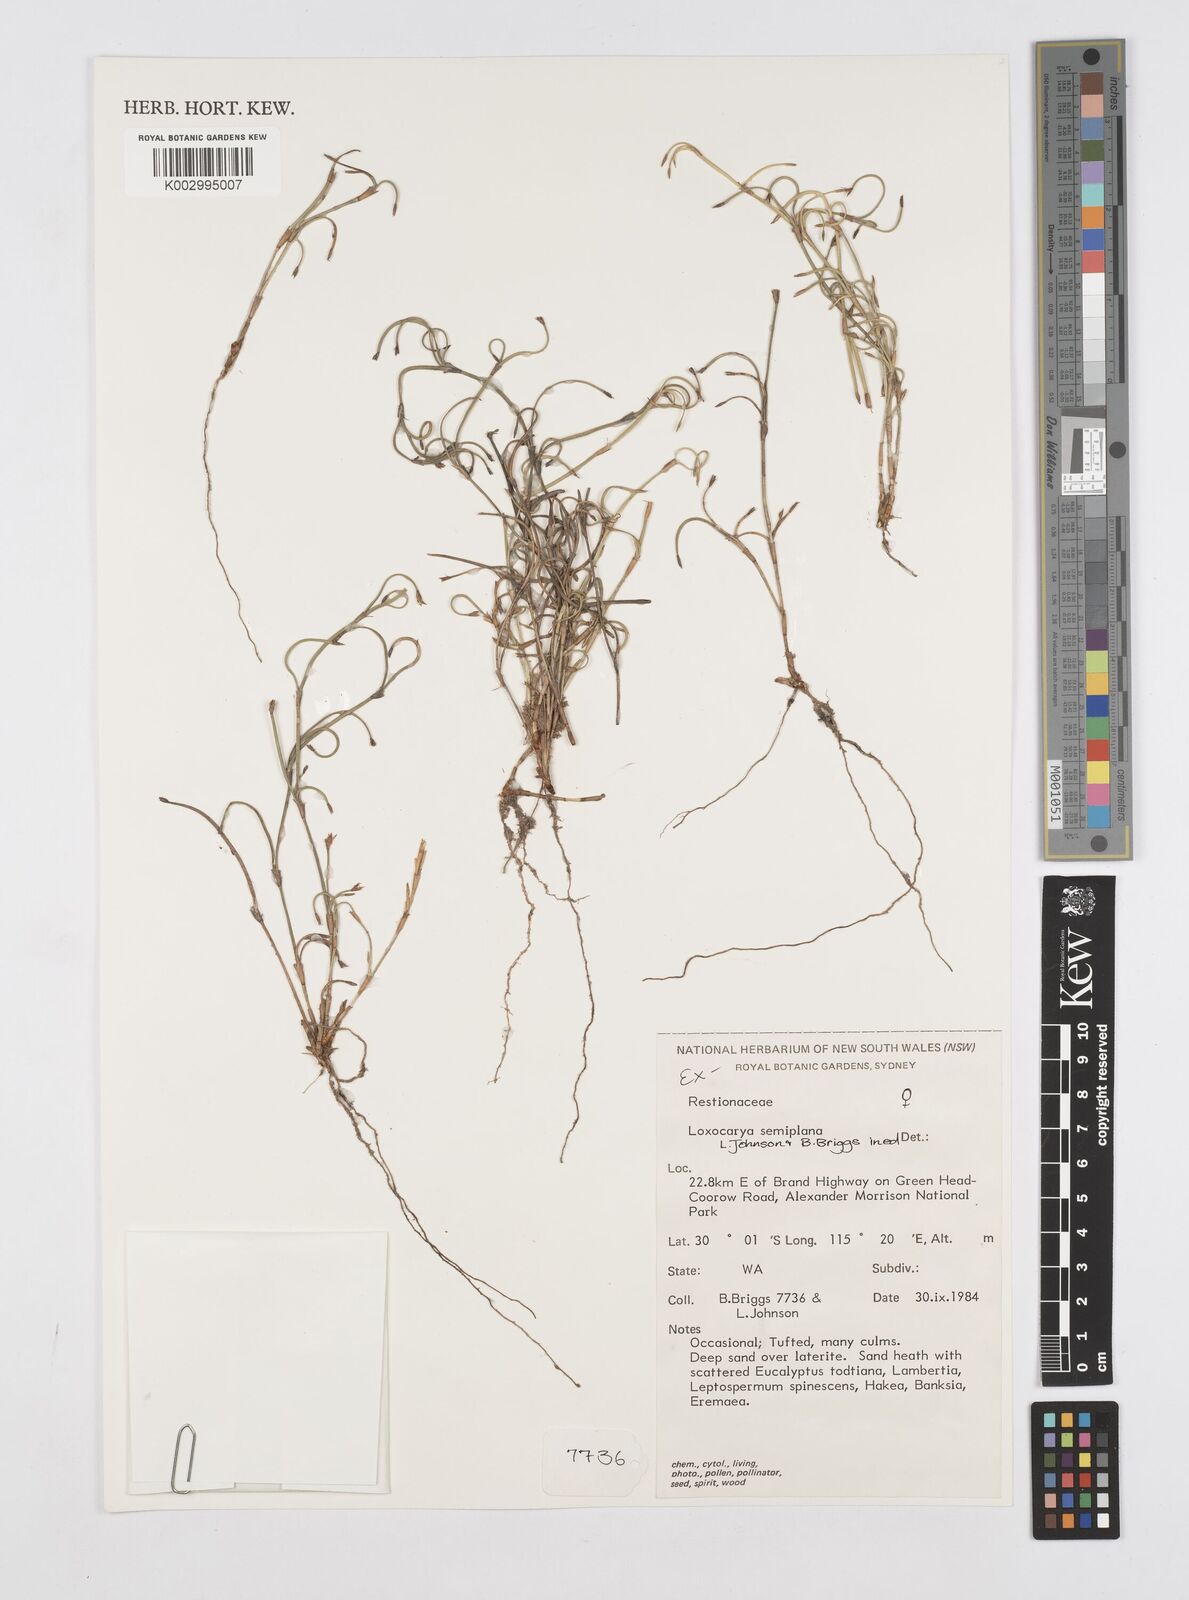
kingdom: Plantae
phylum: Tracheophyta
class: Liliopsida
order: Poales
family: Restionaceae
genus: Desmocladus
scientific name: Desmocladus semiplanus
